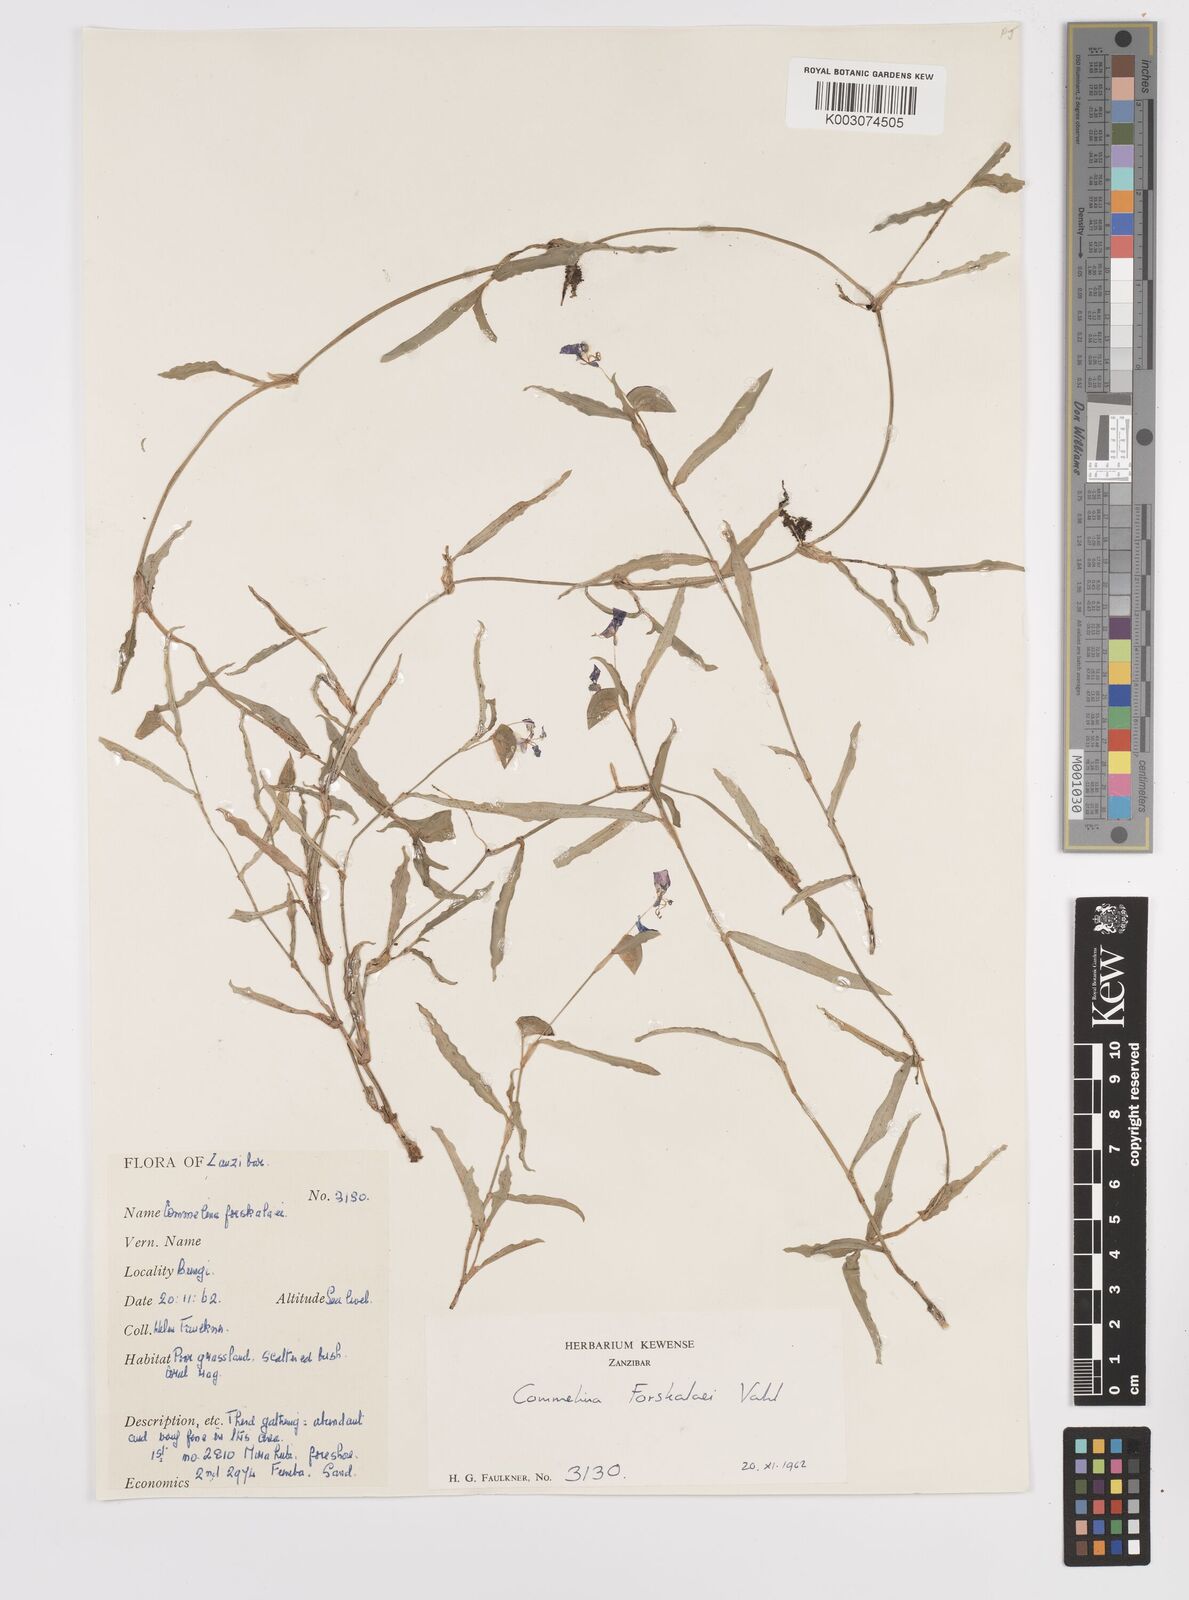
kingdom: Plantae
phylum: Tracheophyta
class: Liliopsida
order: Commelinales
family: Commelinaceae
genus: Commelina
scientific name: Commelina forskaolii
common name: Rat's ear
